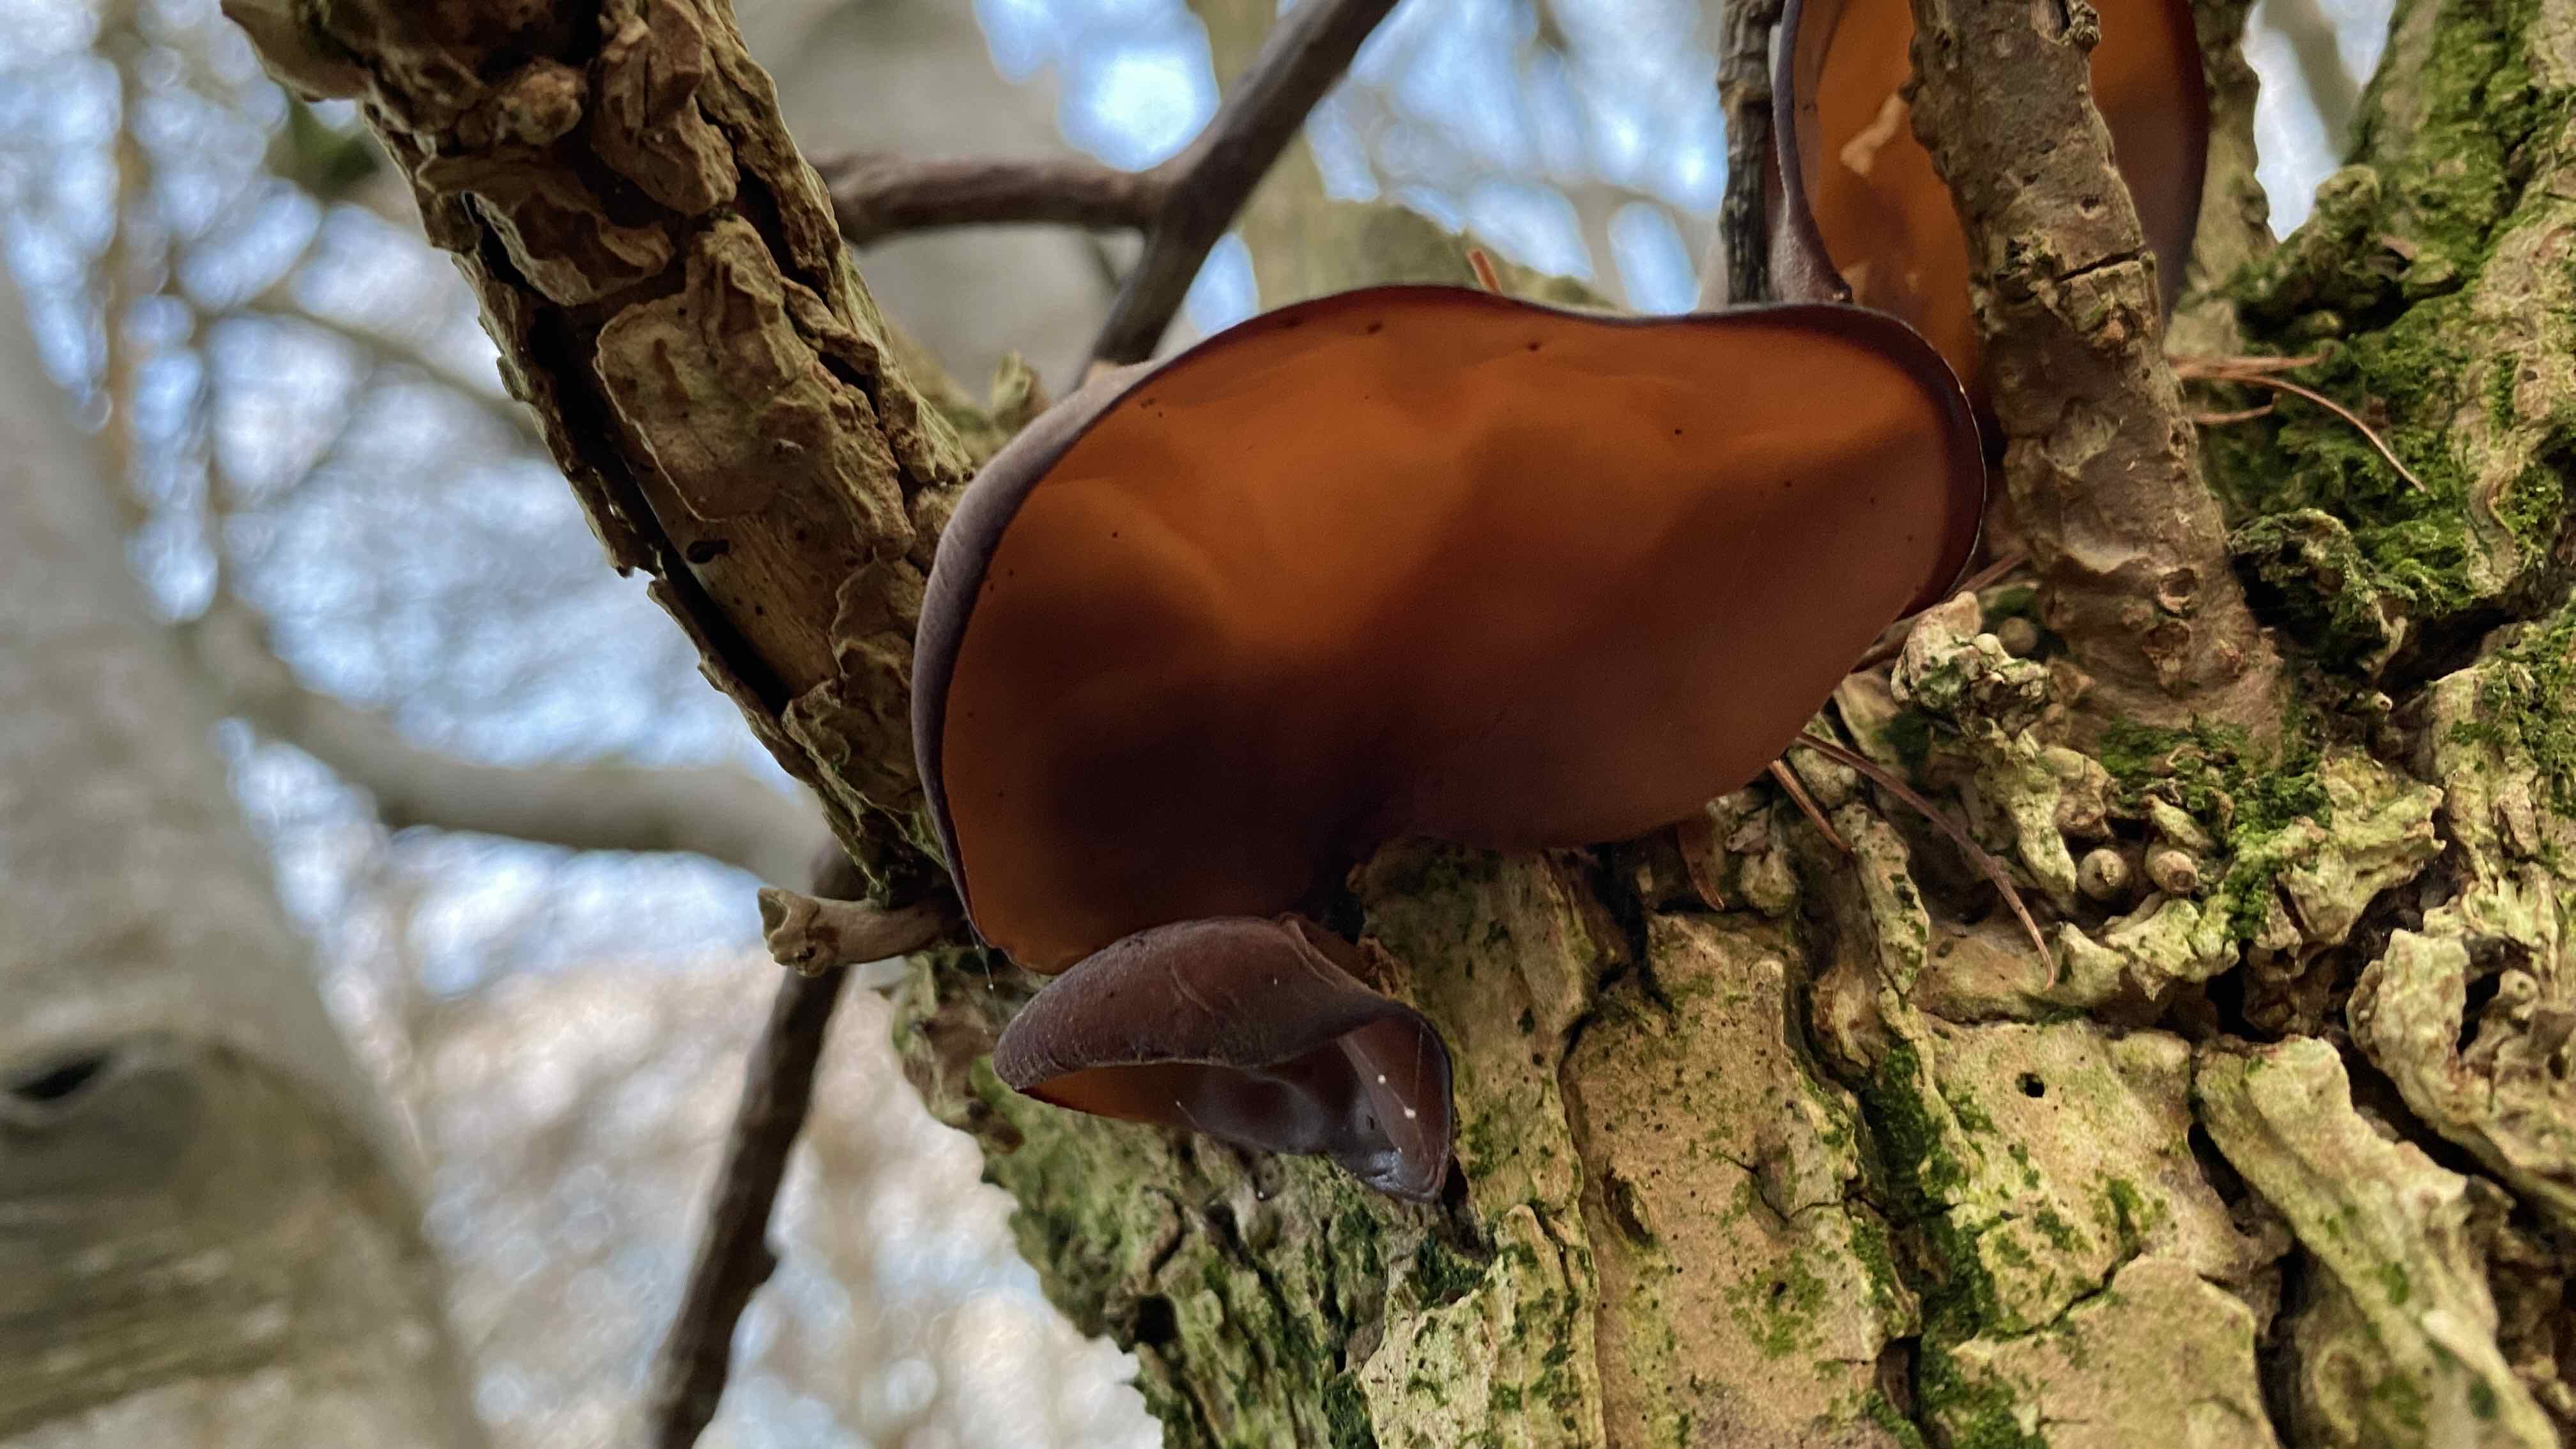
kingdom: Fungi
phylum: Basidiomycota
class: Agaricomycetes
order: Auriculariales
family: Auriculariaceae
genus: Auricularia
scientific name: Auricularia auricula-judae
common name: almindelig judasøre
